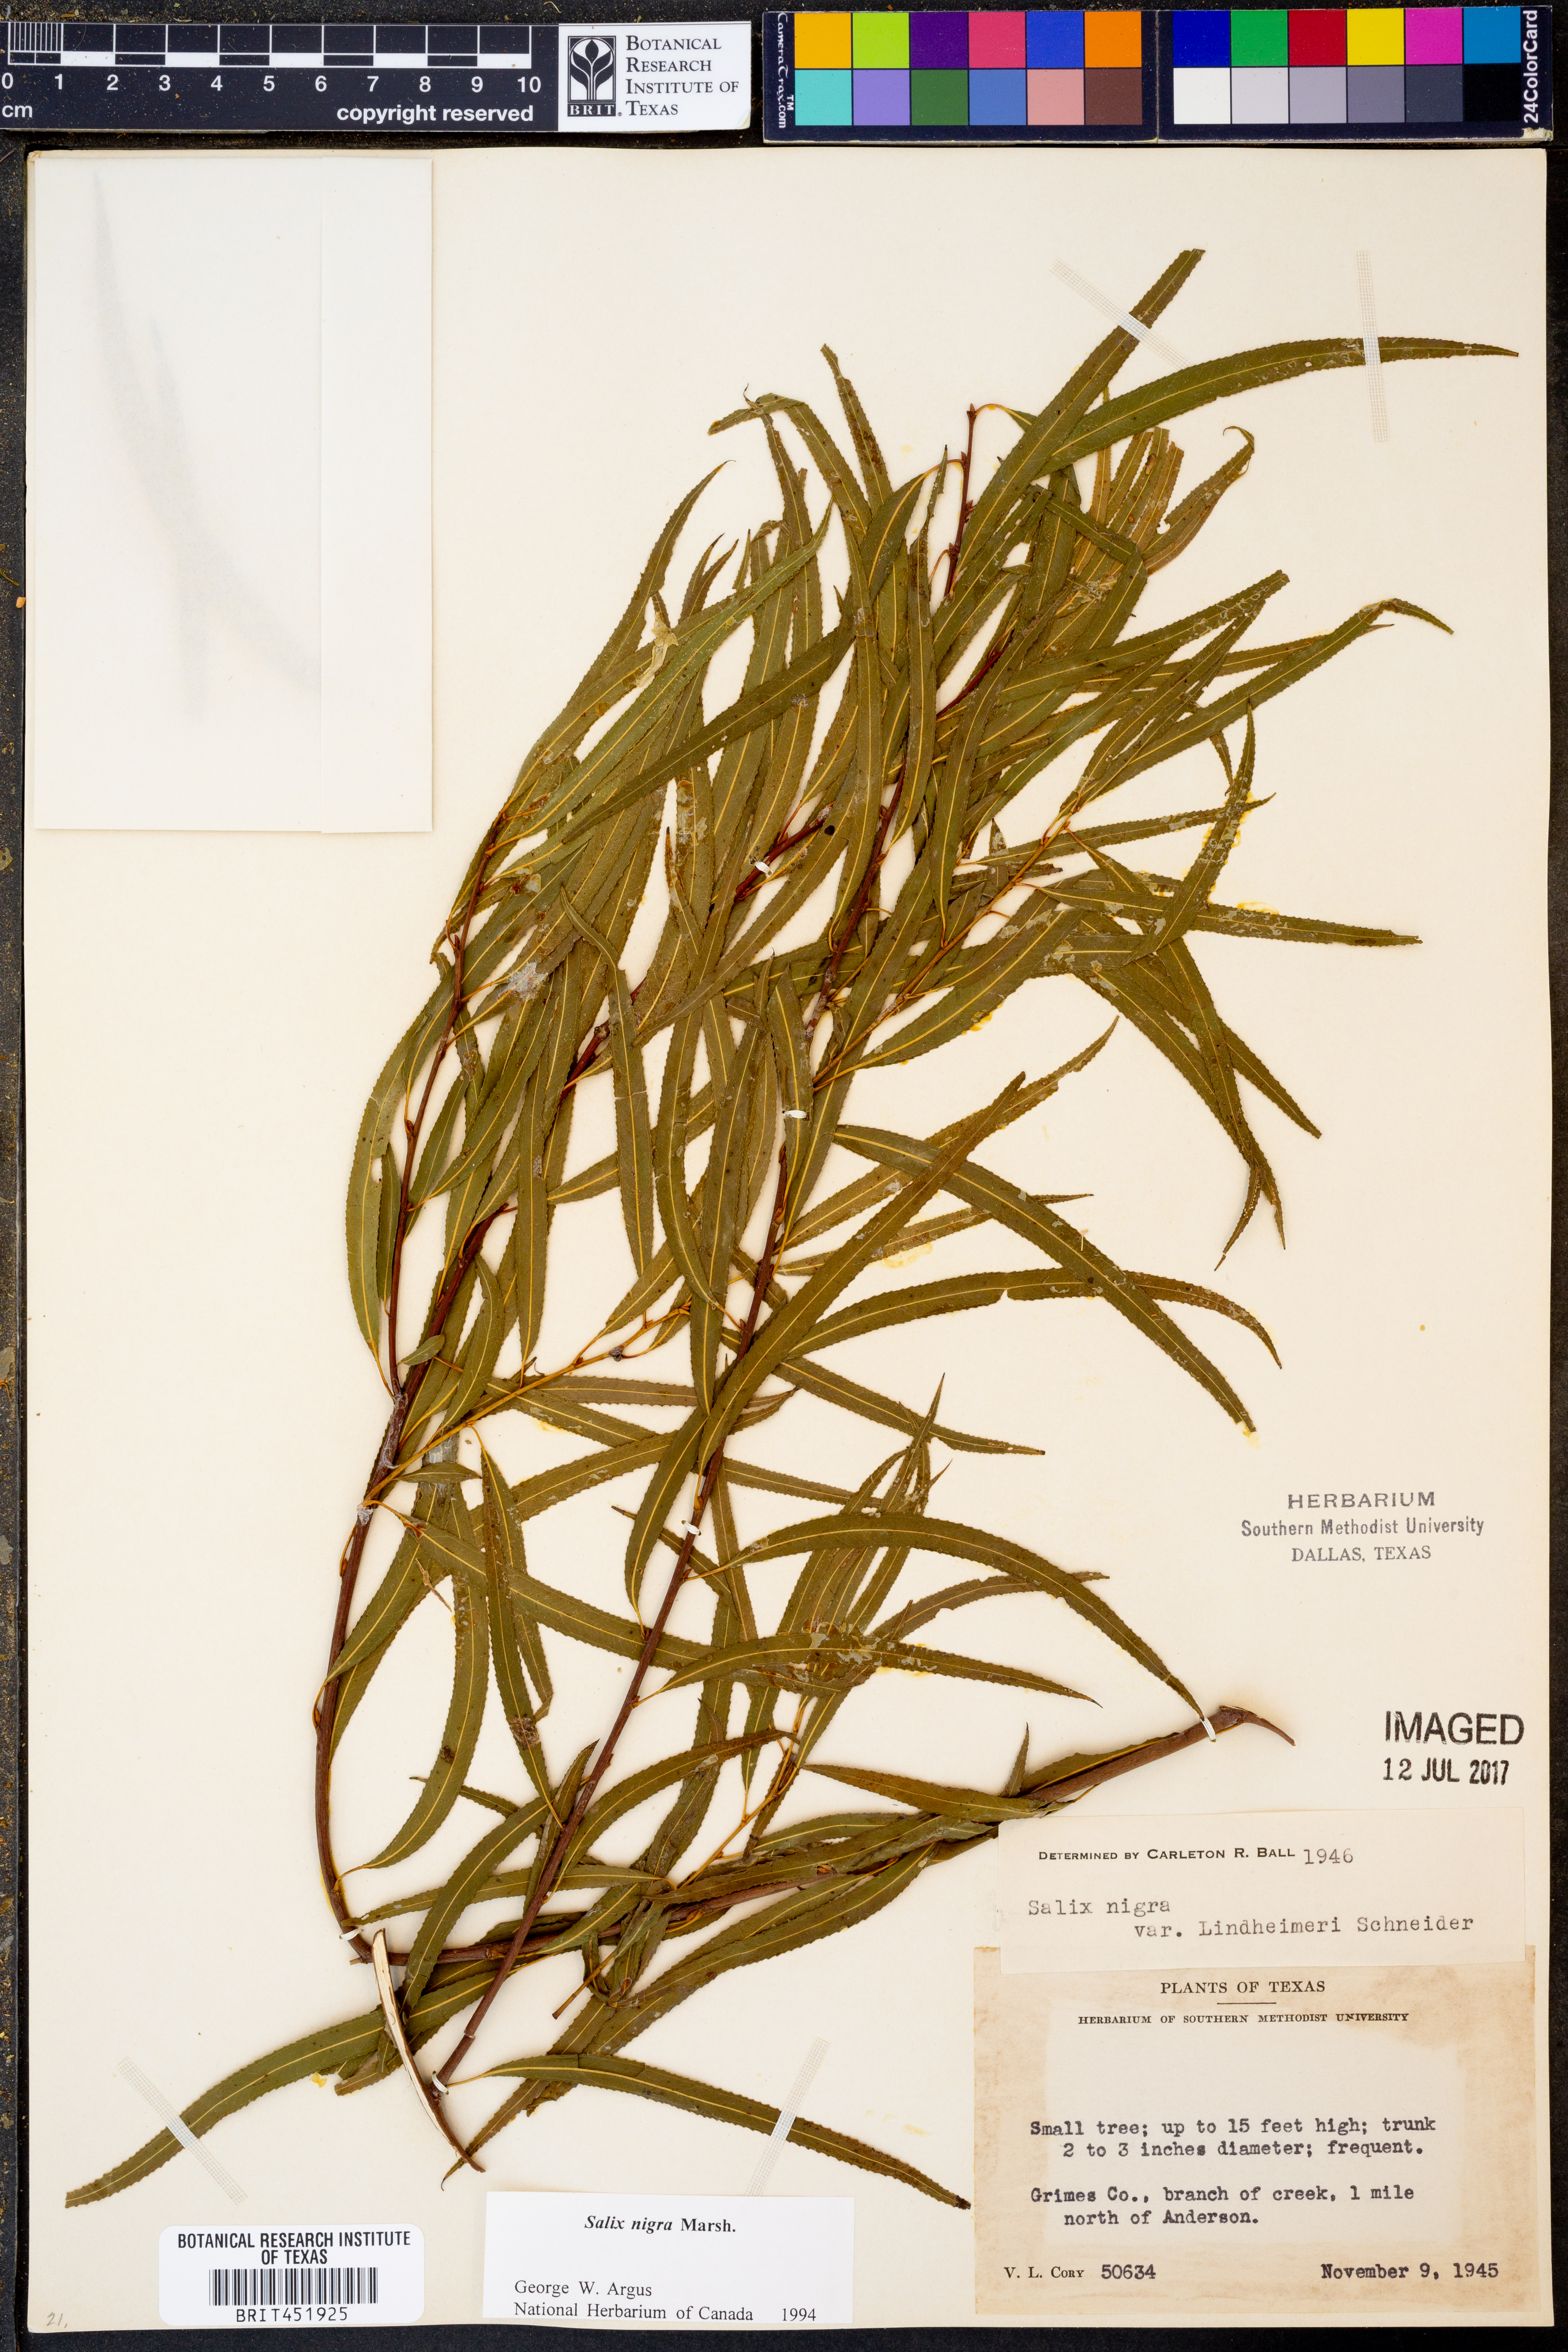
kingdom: Plantae
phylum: Tracheophyta
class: Magnoliopsida
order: Malpighiales
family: Salicaceae
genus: Salix
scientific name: Salix nigra
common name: Black willow
